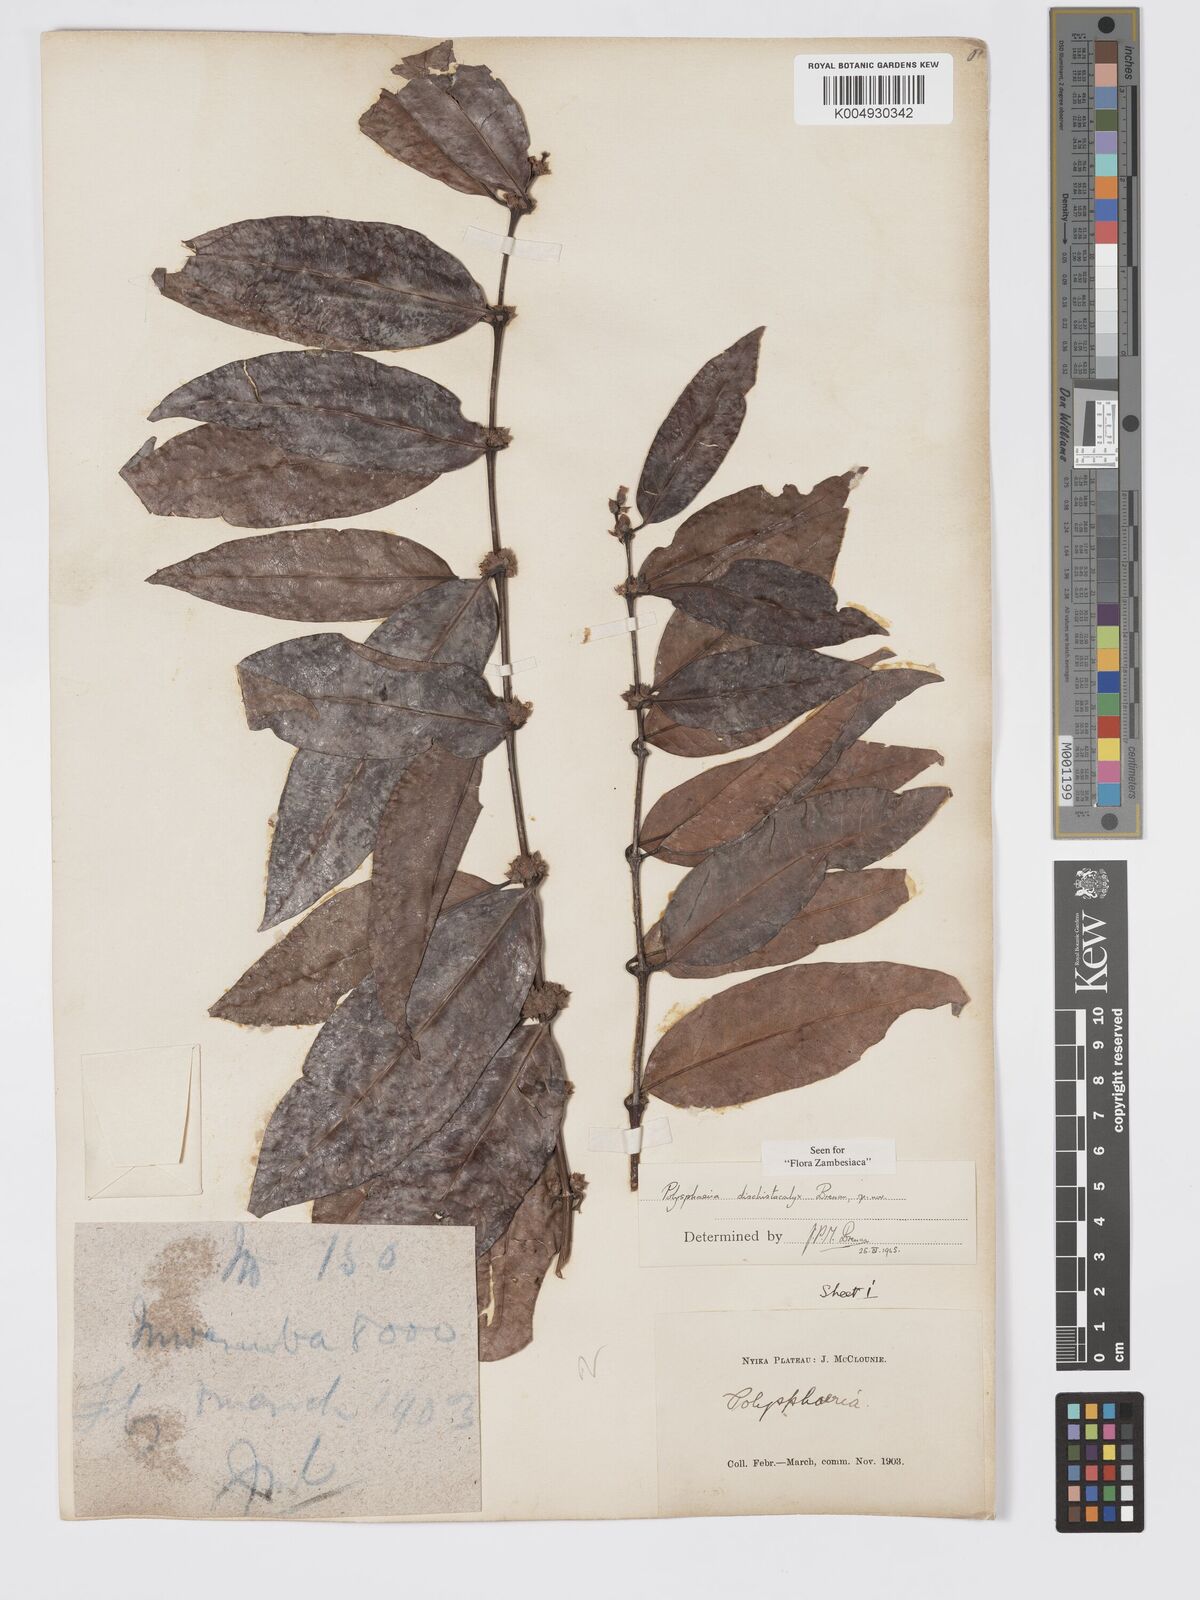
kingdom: Plantae
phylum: Tracheophyta
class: Magnoliopsida
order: Gentianales
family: Rubiaceae
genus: Polysphaeria
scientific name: Polysphaeria dischistocalyx
